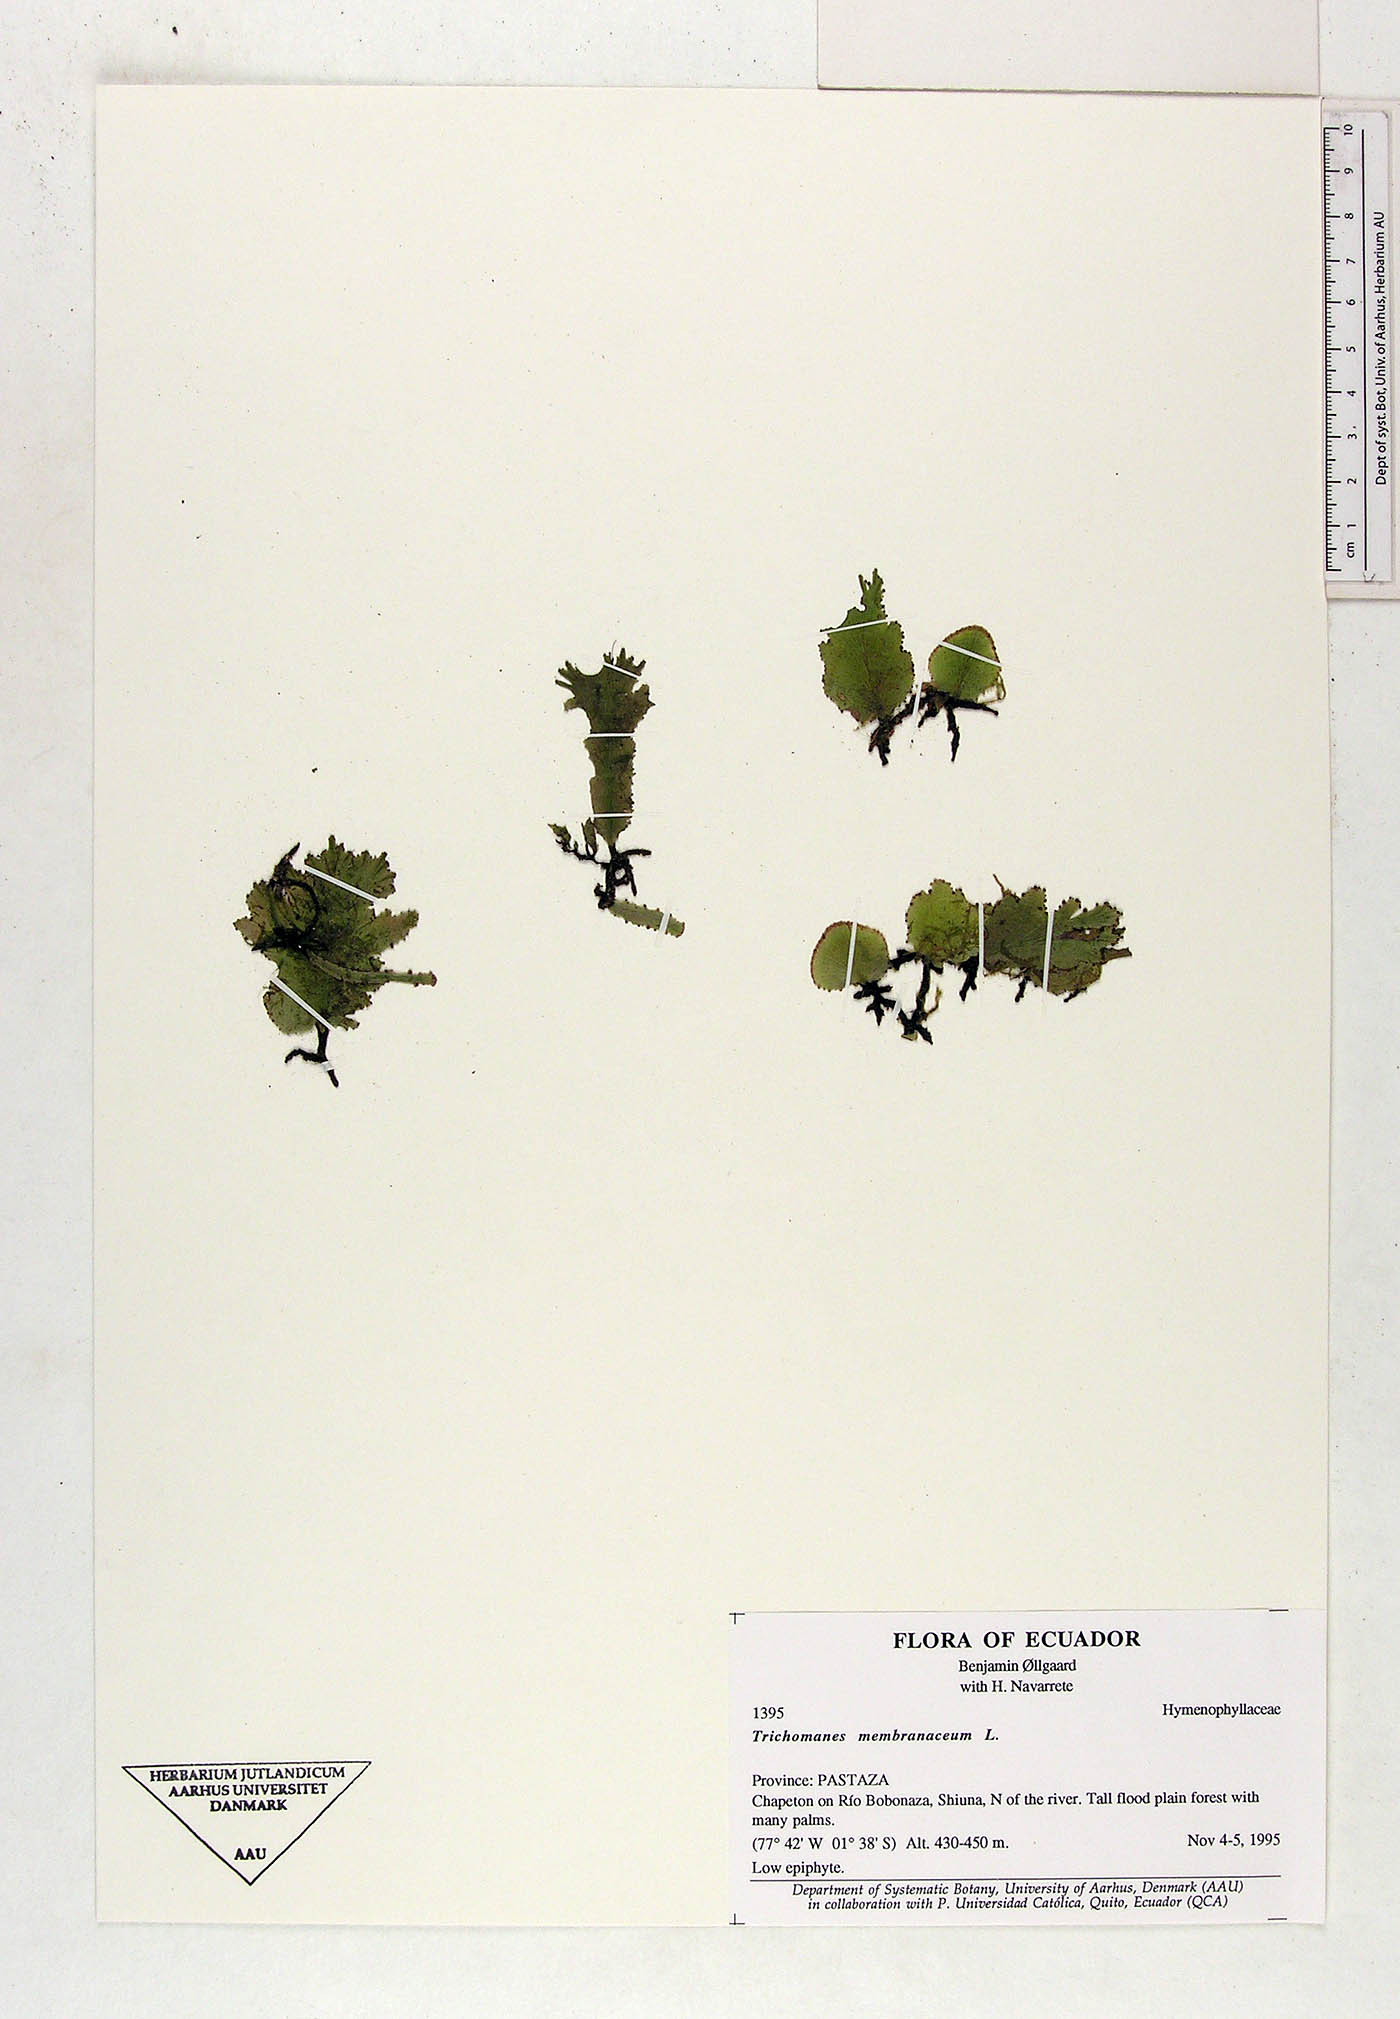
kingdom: Plantae
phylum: Tracheophyta
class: Polypodiopsida
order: Hymenophyllales
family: Hymenophyllaceae
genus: Didymoglossum
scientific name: Didymoglossum membranaceum
